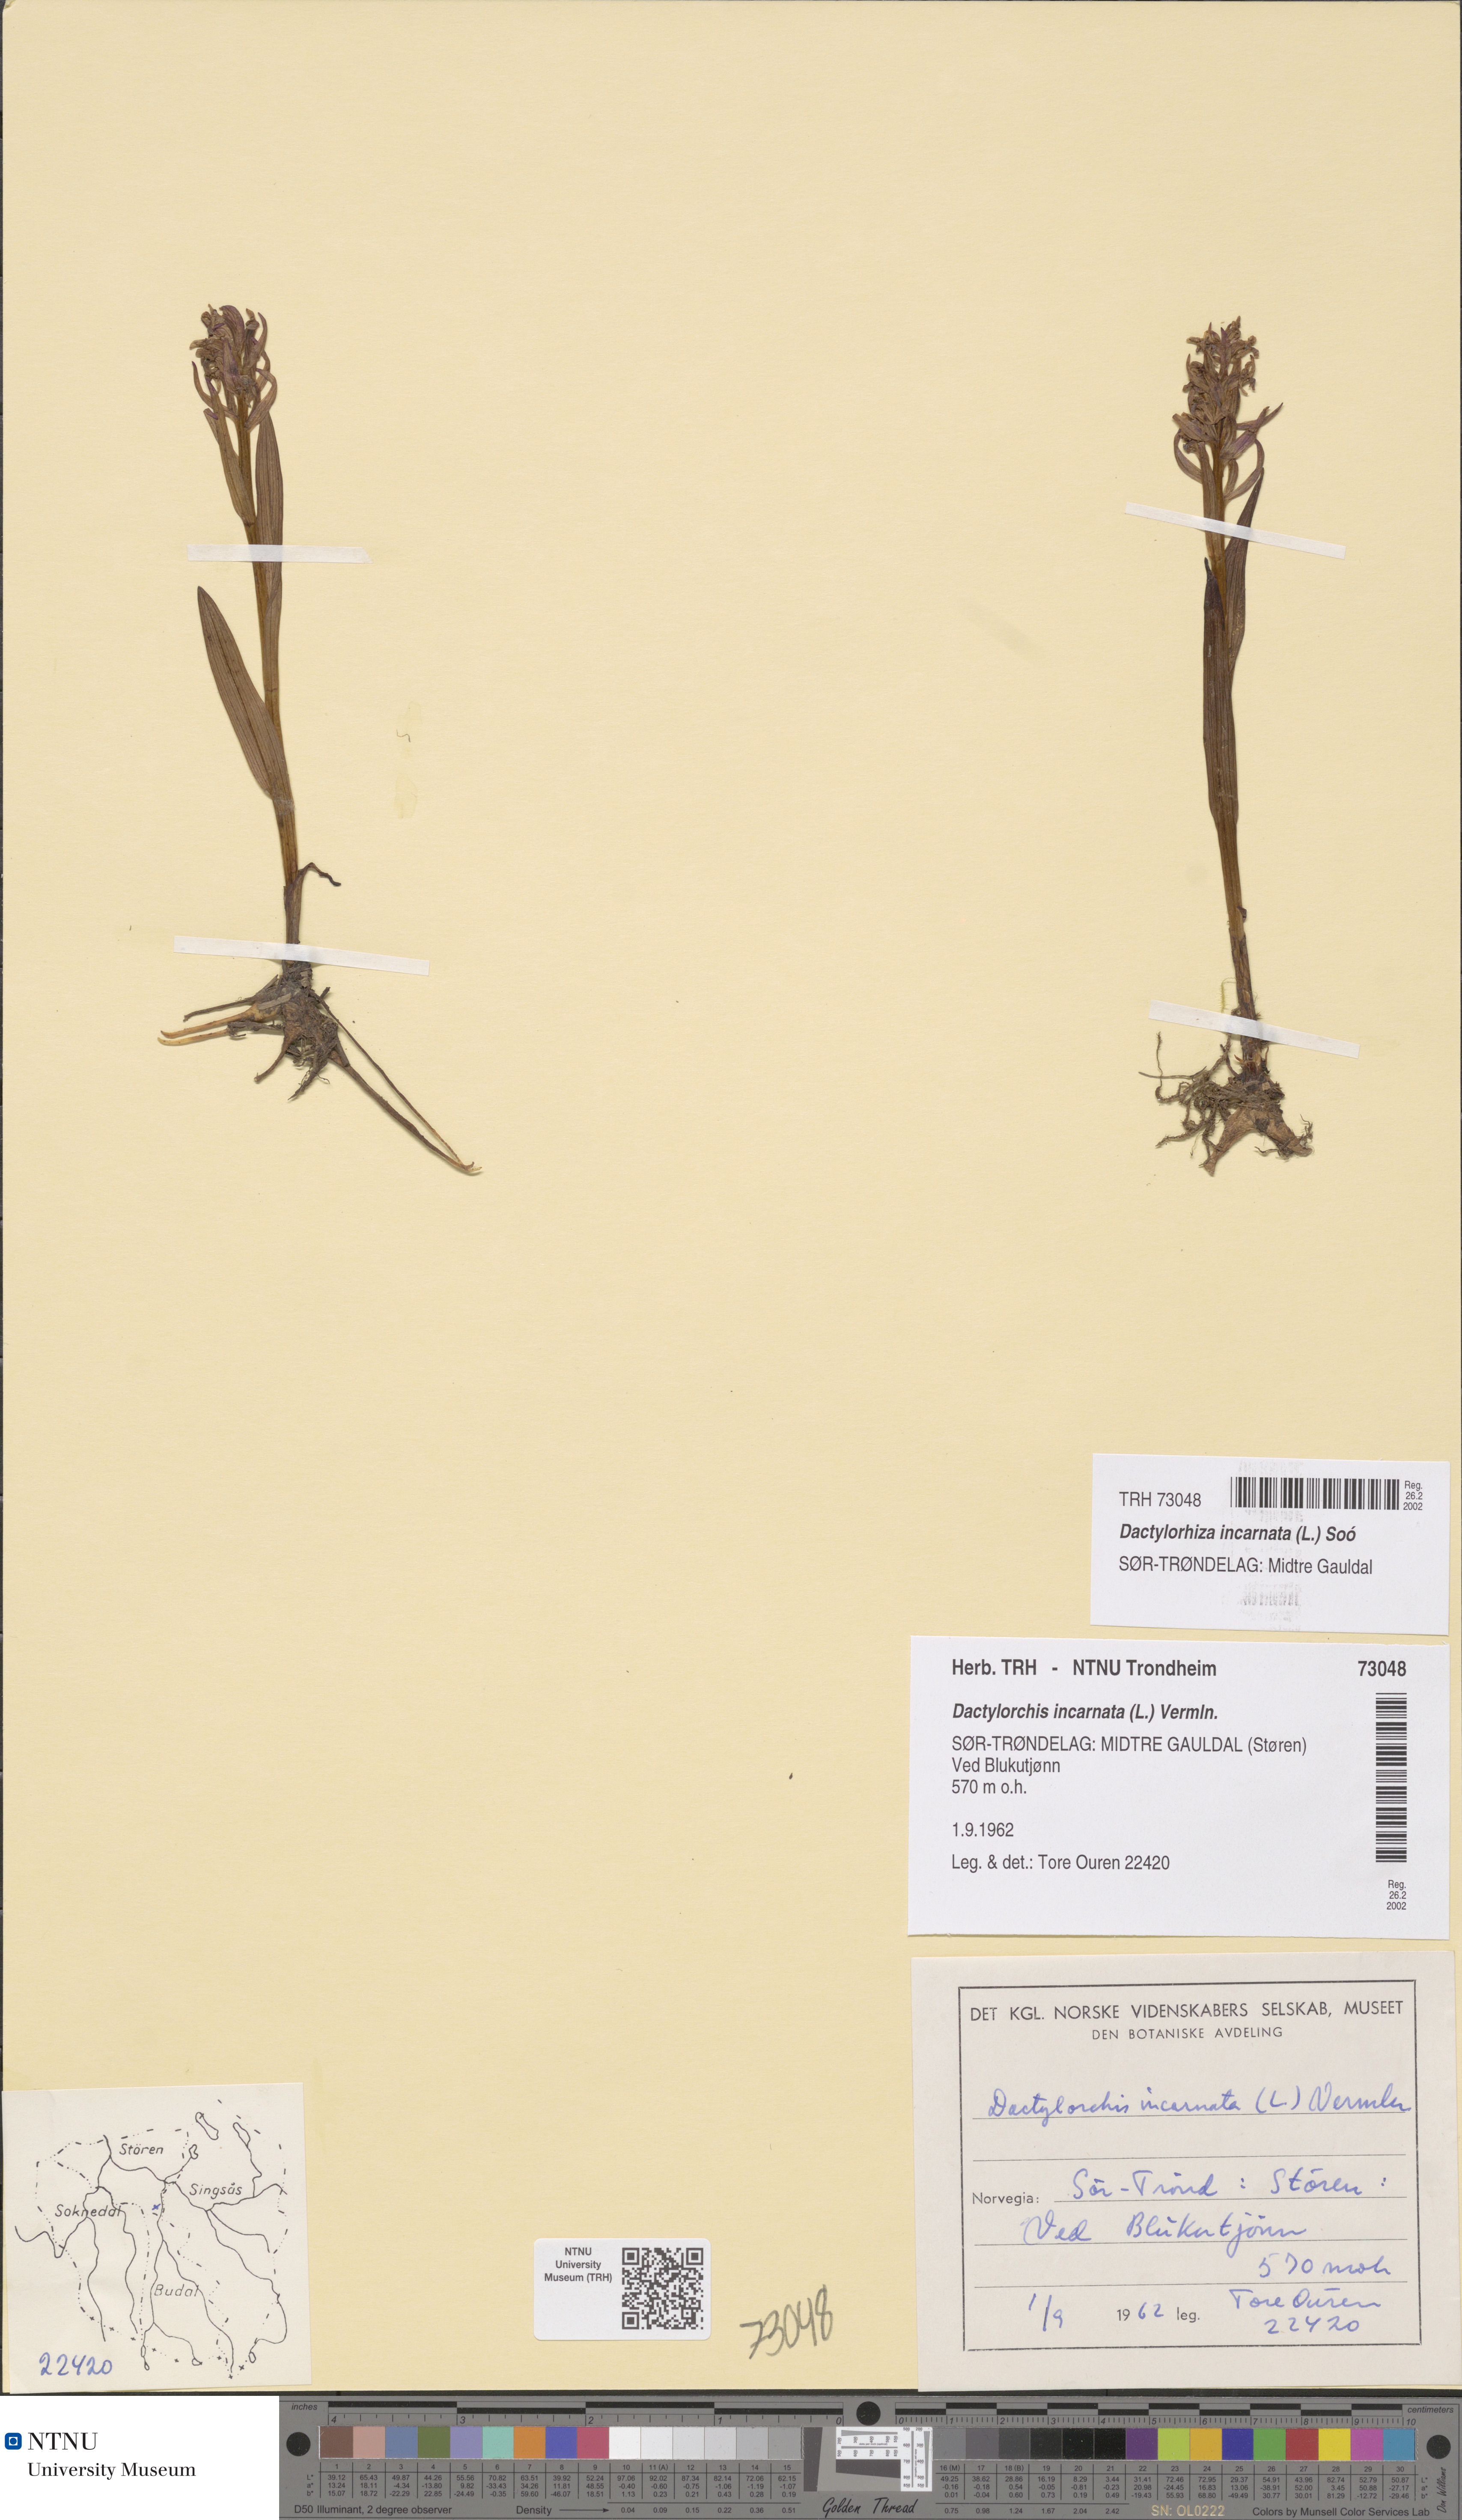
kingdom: Plantae
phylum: Tracheophyta
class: Liliopsida
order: Asparagales
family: Orchidaceae
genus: Dactylorhiza
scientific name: Dactylorhiza incarnata
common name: Early marsh-orchid
